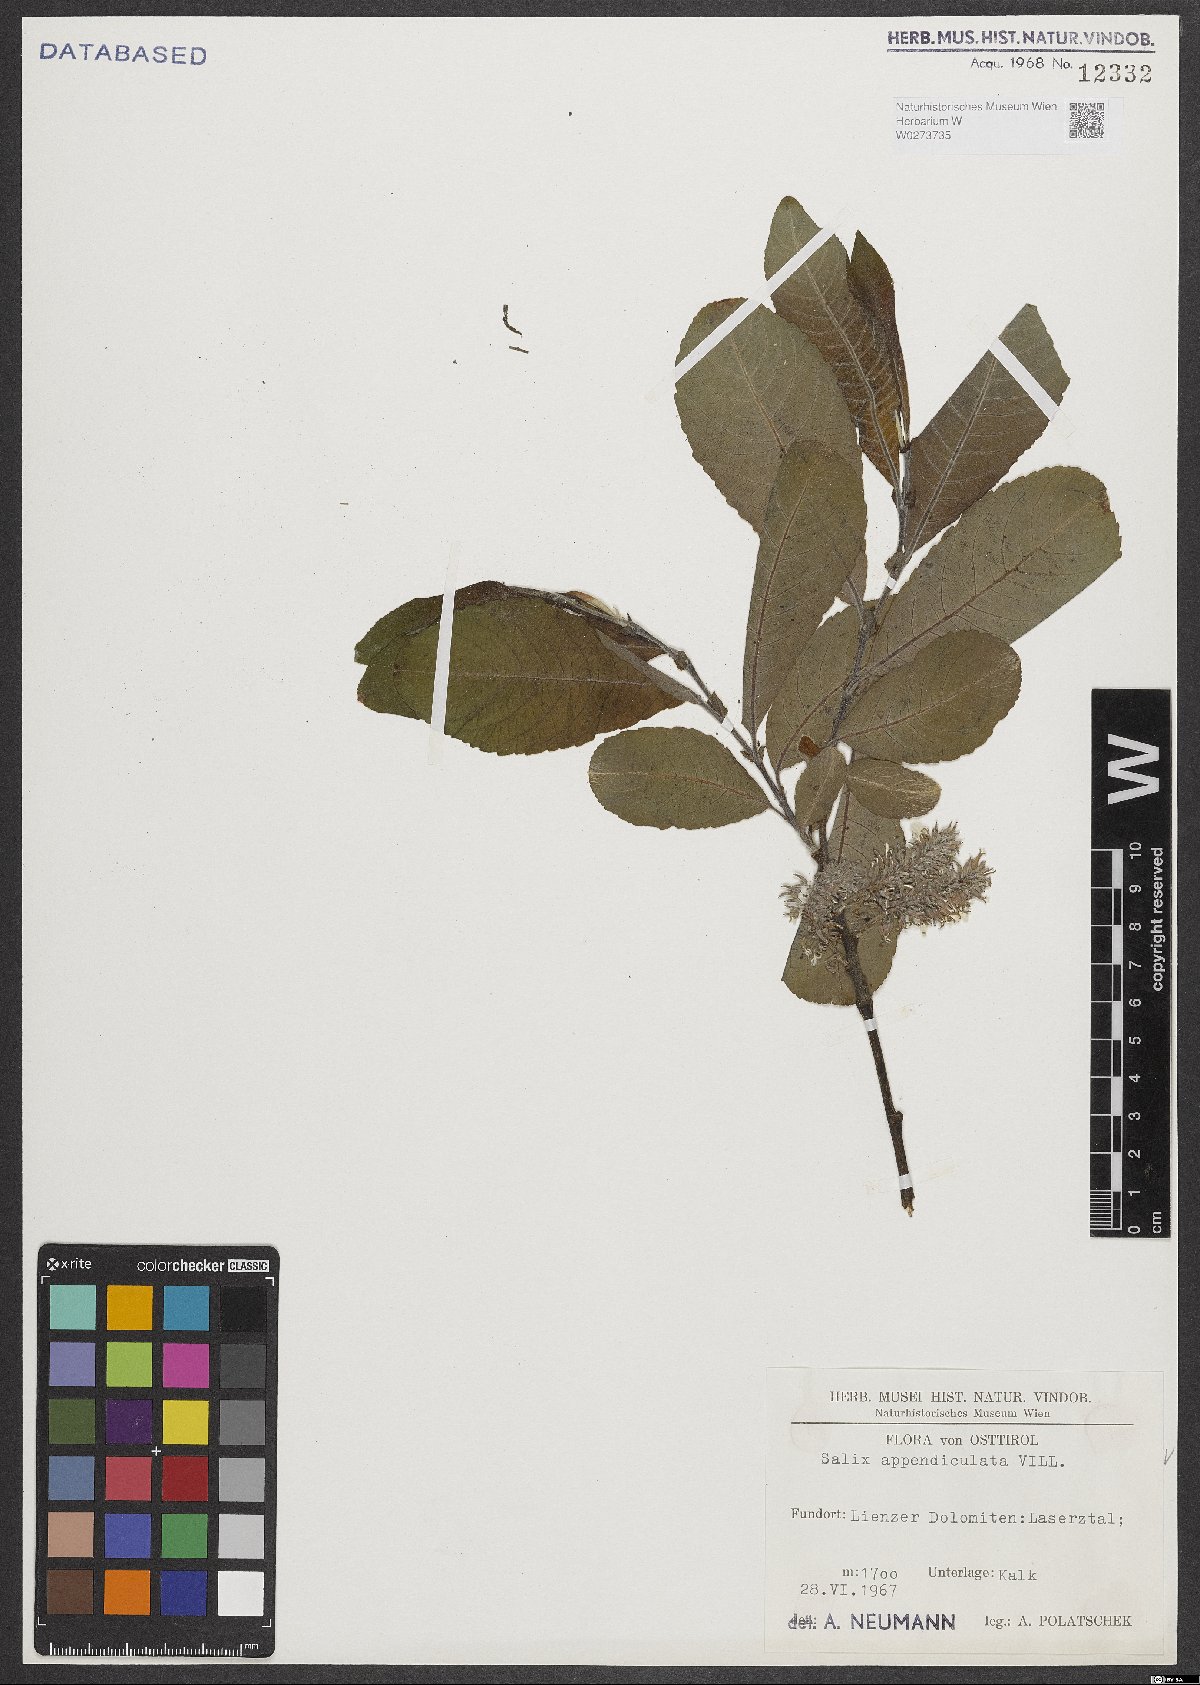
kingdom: Plantae
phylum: Tracheophyta
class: Magnoliopsida
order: Malpighiales
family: Salicaceae
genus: Salix
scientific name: Salix appendiculata
